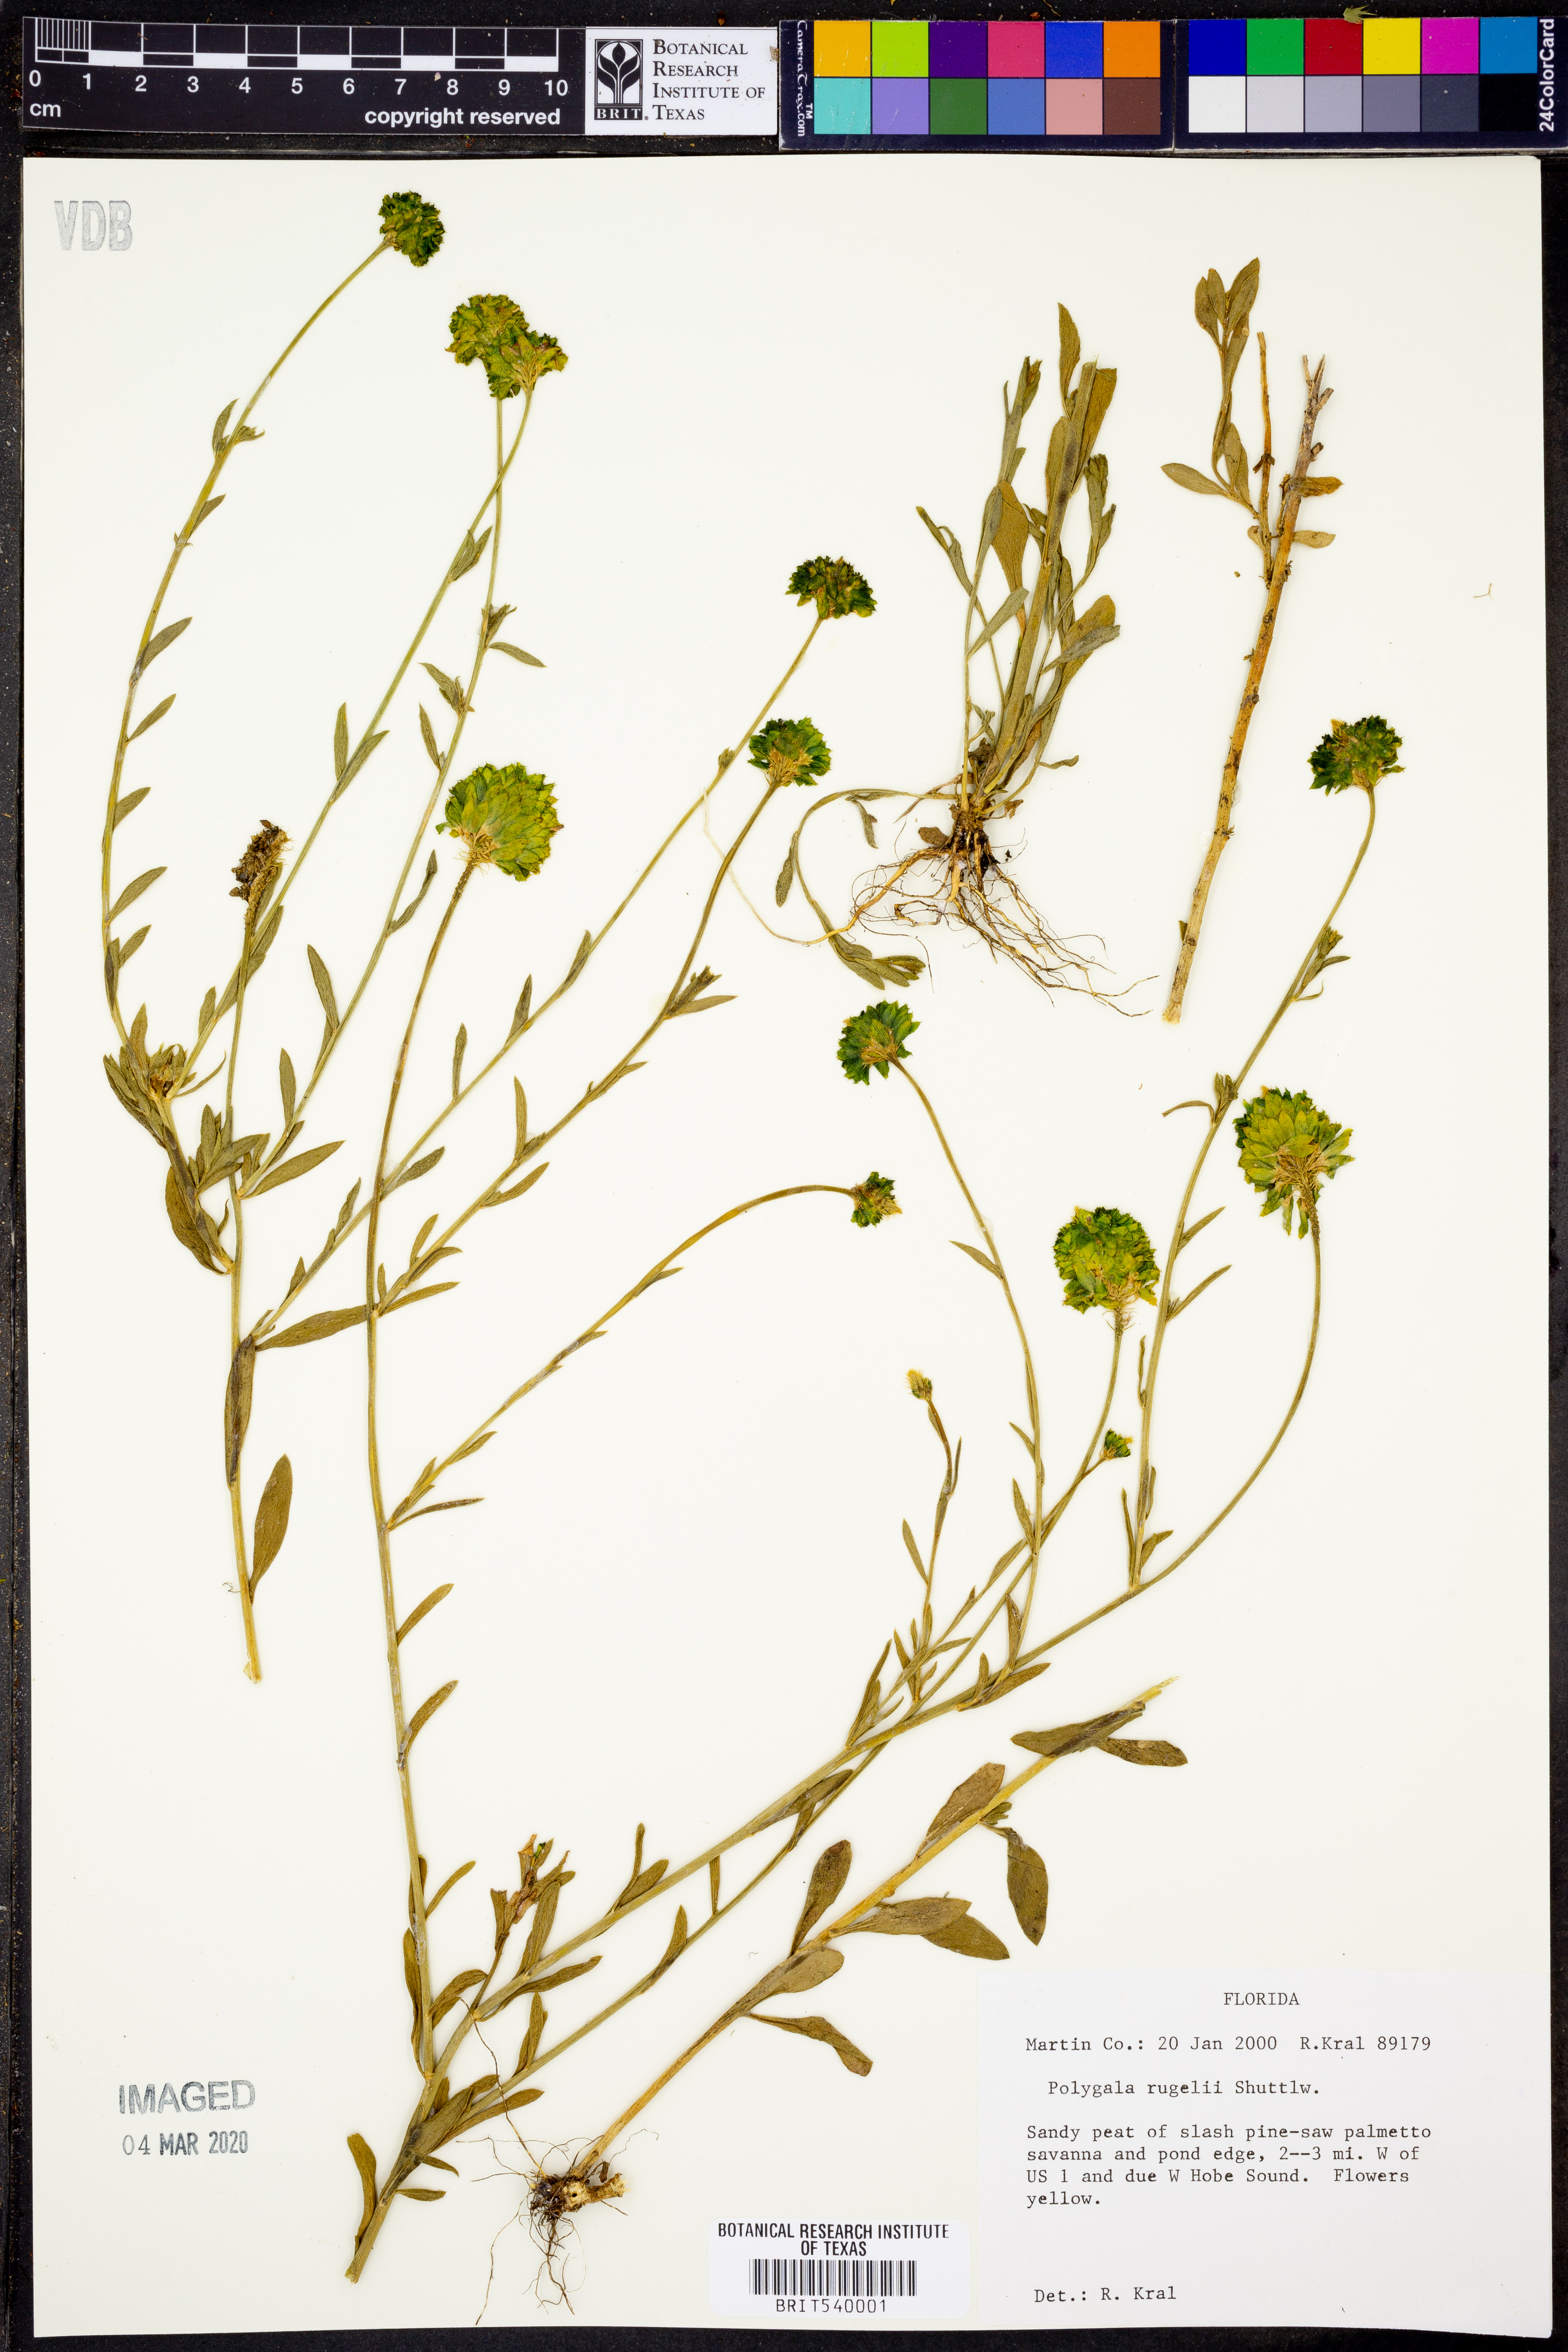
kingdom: Plantae
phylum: Tracheophyta
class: Magnoliopsida
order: Fabales
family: Polygalaceae
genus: Polygala
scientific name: Polygala rugelii
